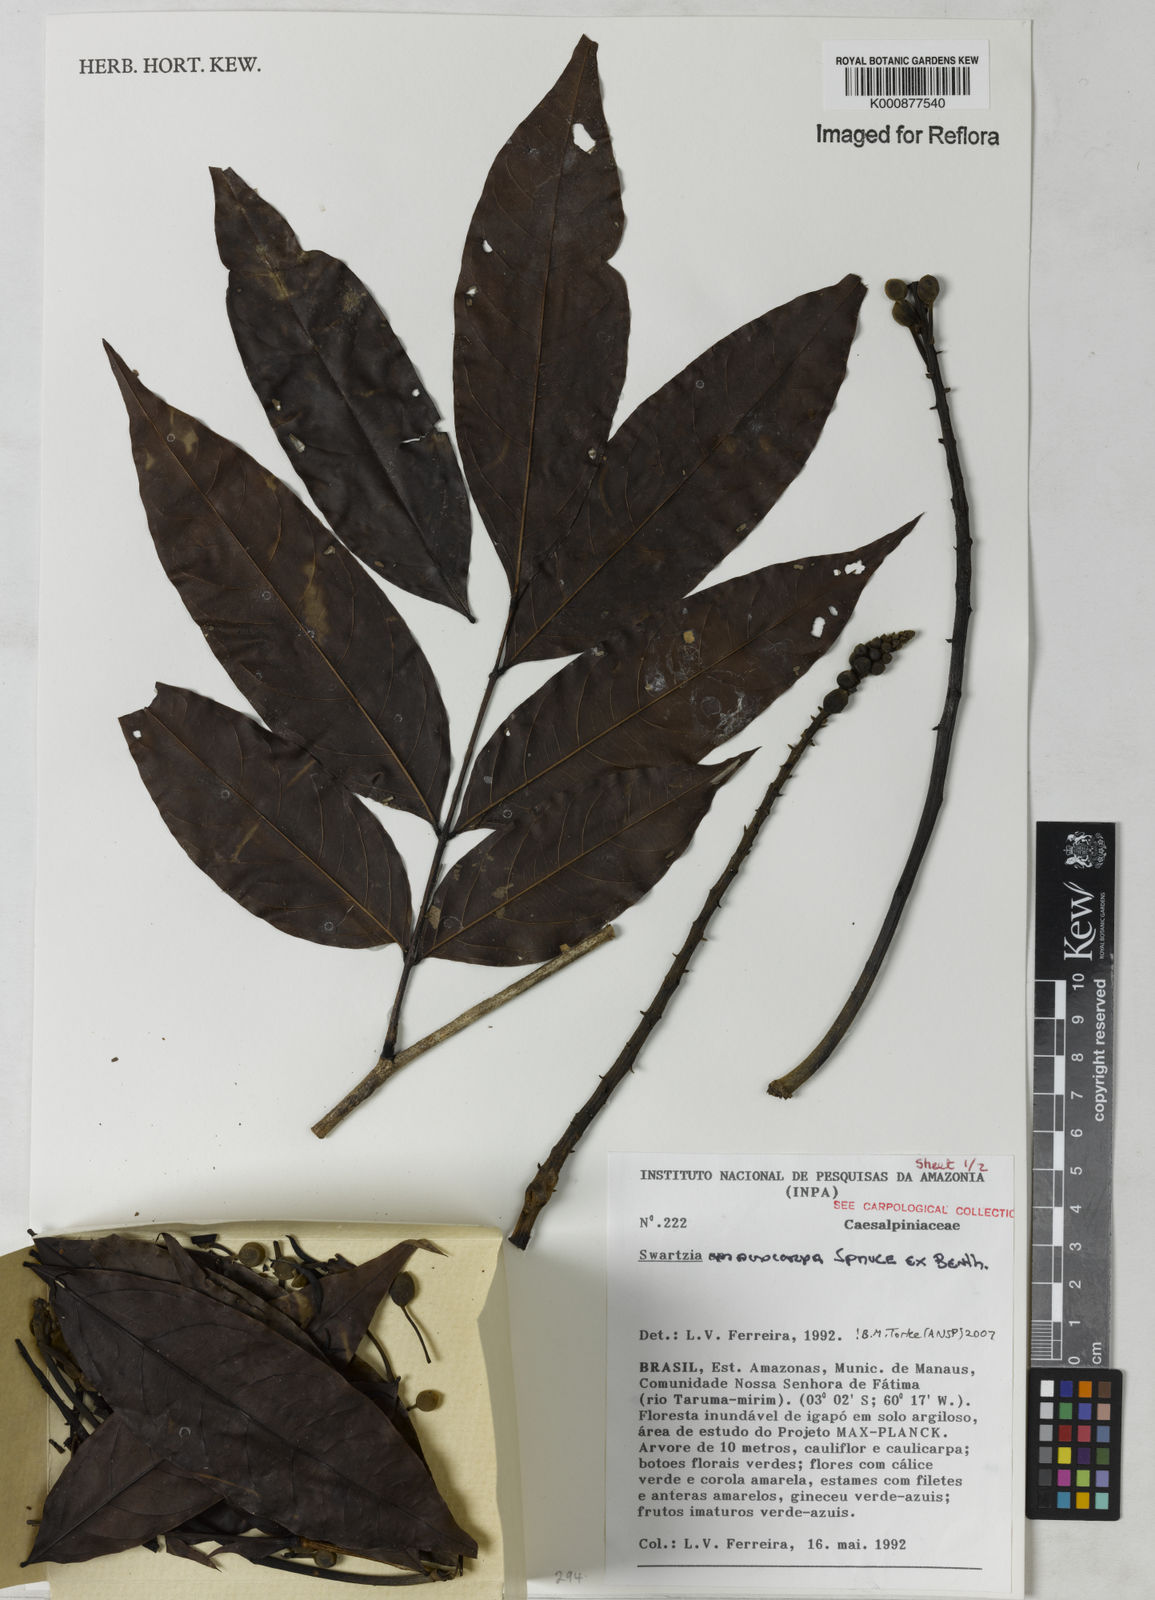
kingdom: Plantae
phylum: Tracheophyta
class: Magnoliopsida
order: Fabales
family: Fabaceae
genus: Swartzia
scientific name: Swartzia macrocarpa
